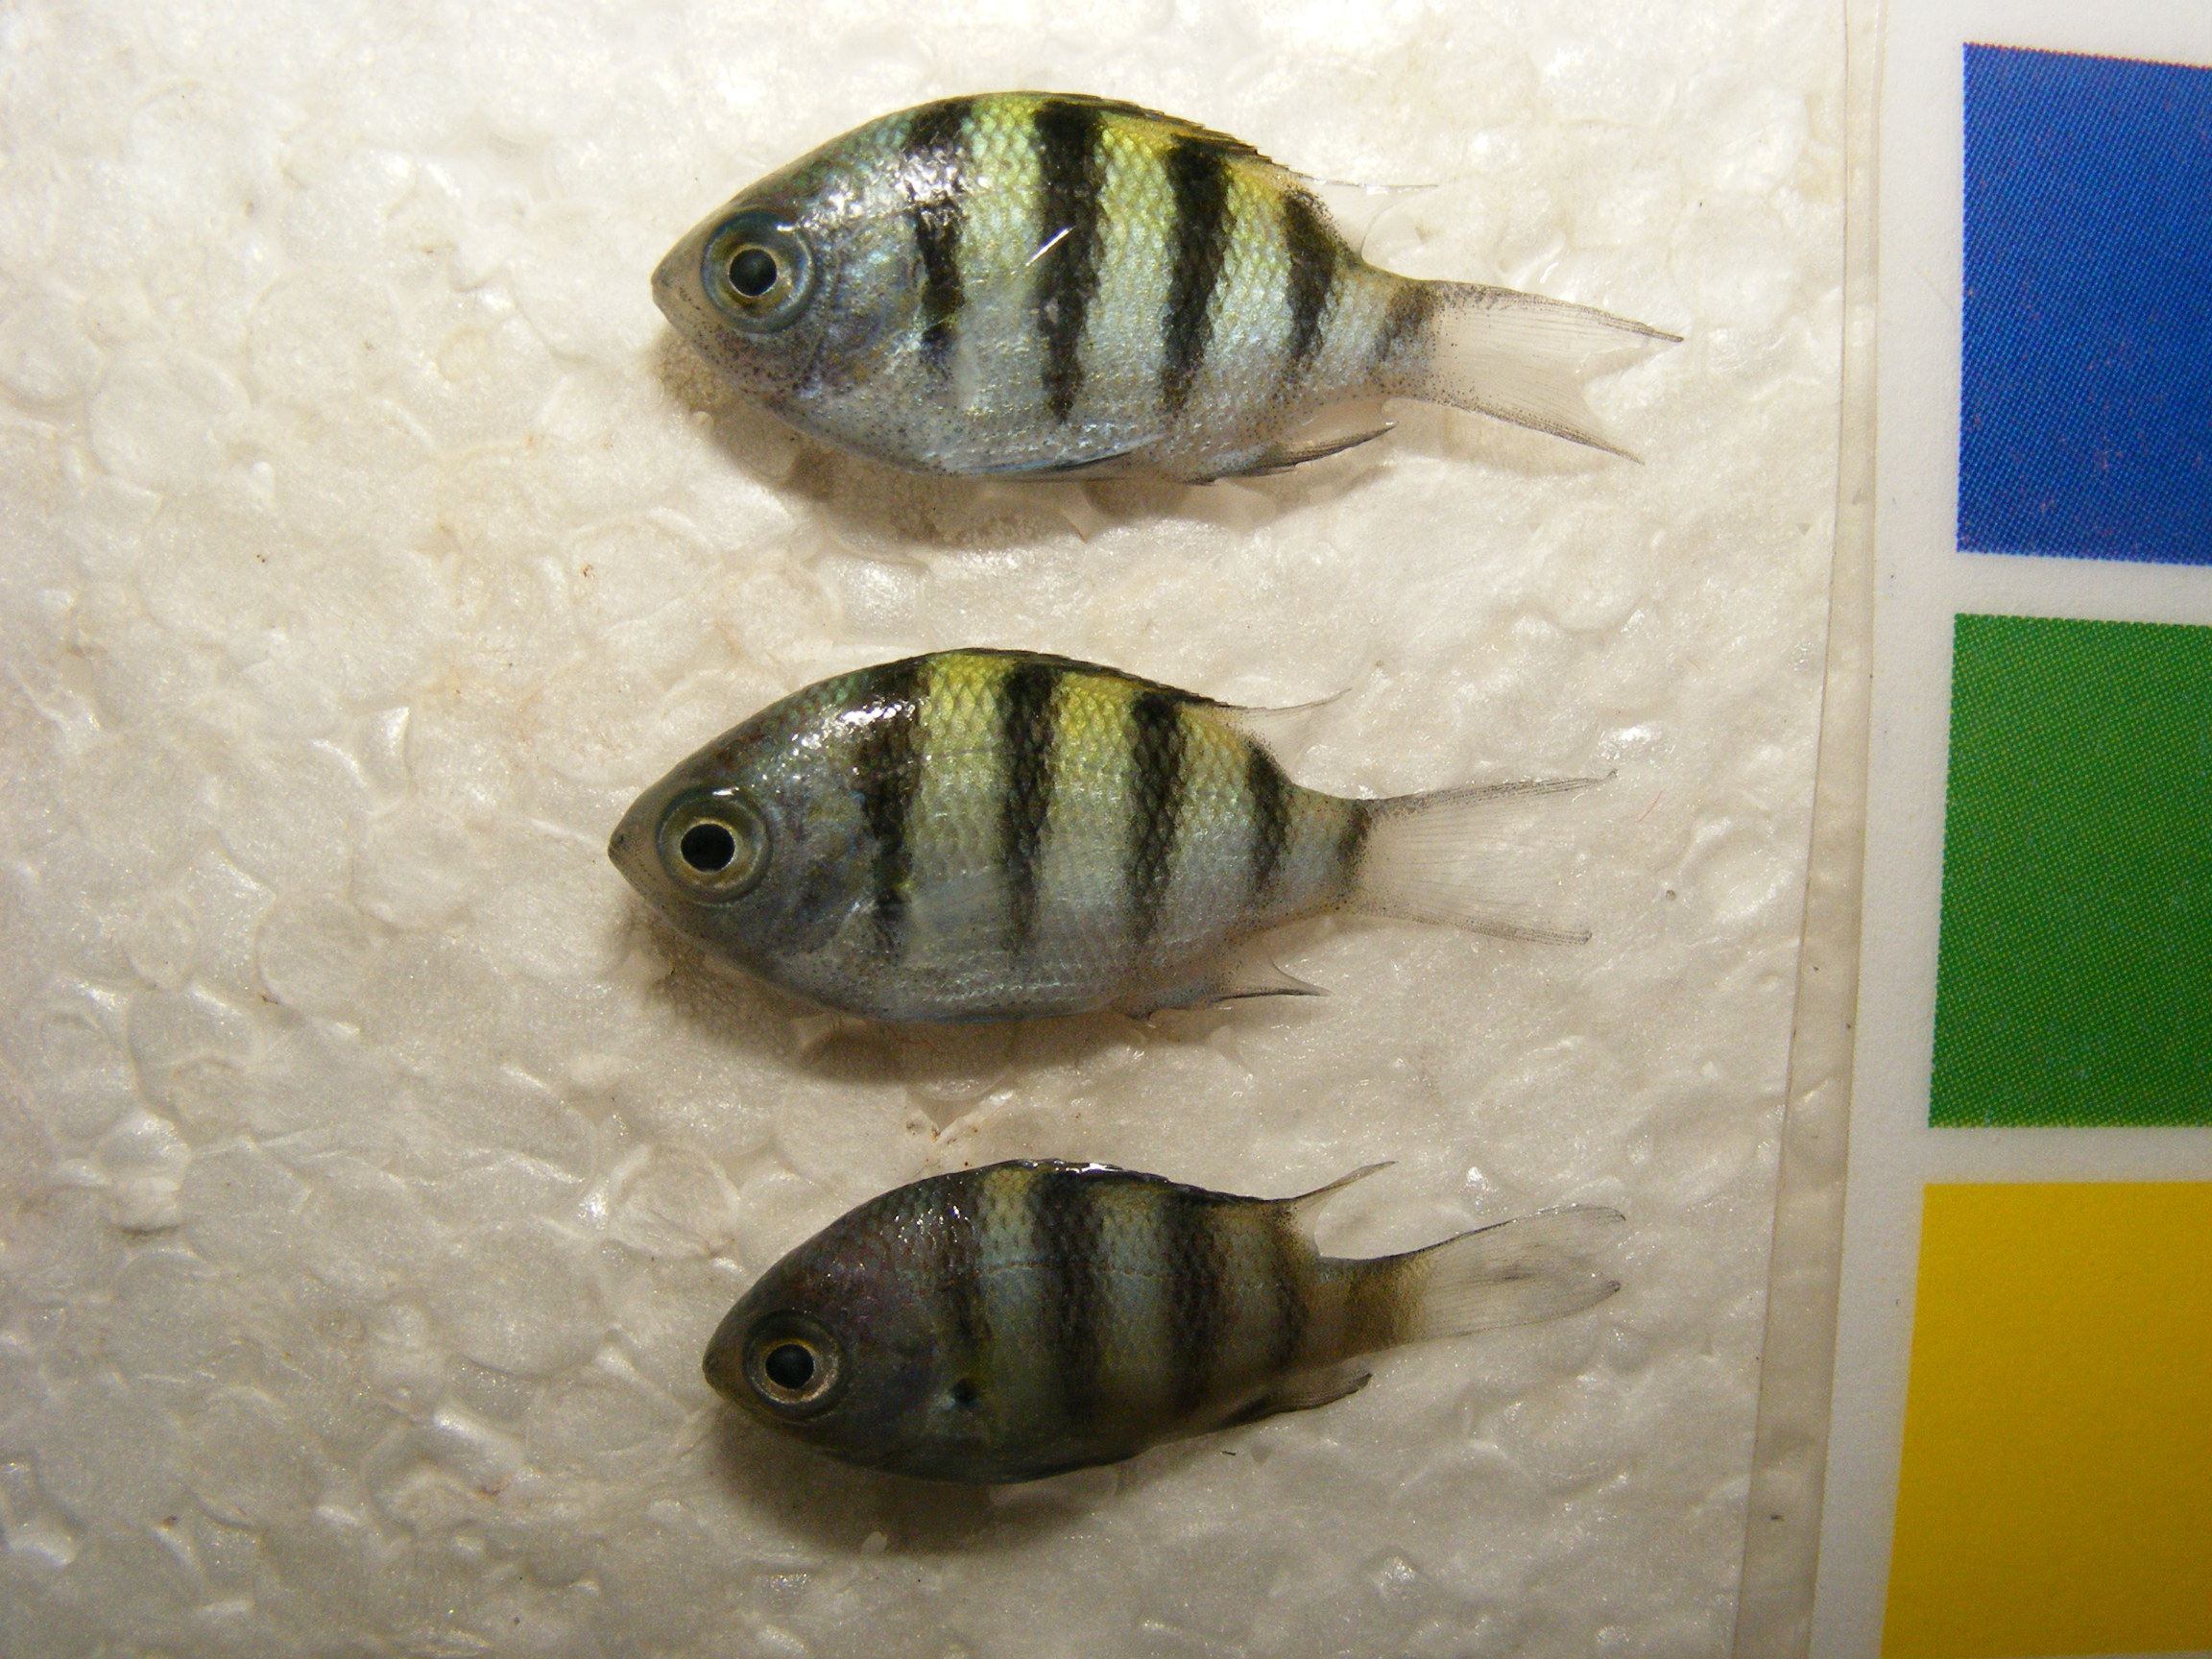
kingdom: Animalia
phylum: Chordata
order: Perciformes
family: Pomacentridae
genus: Abudefduf
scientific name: Abudefduf vaigiensis
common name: Indo-pacific sergeant
